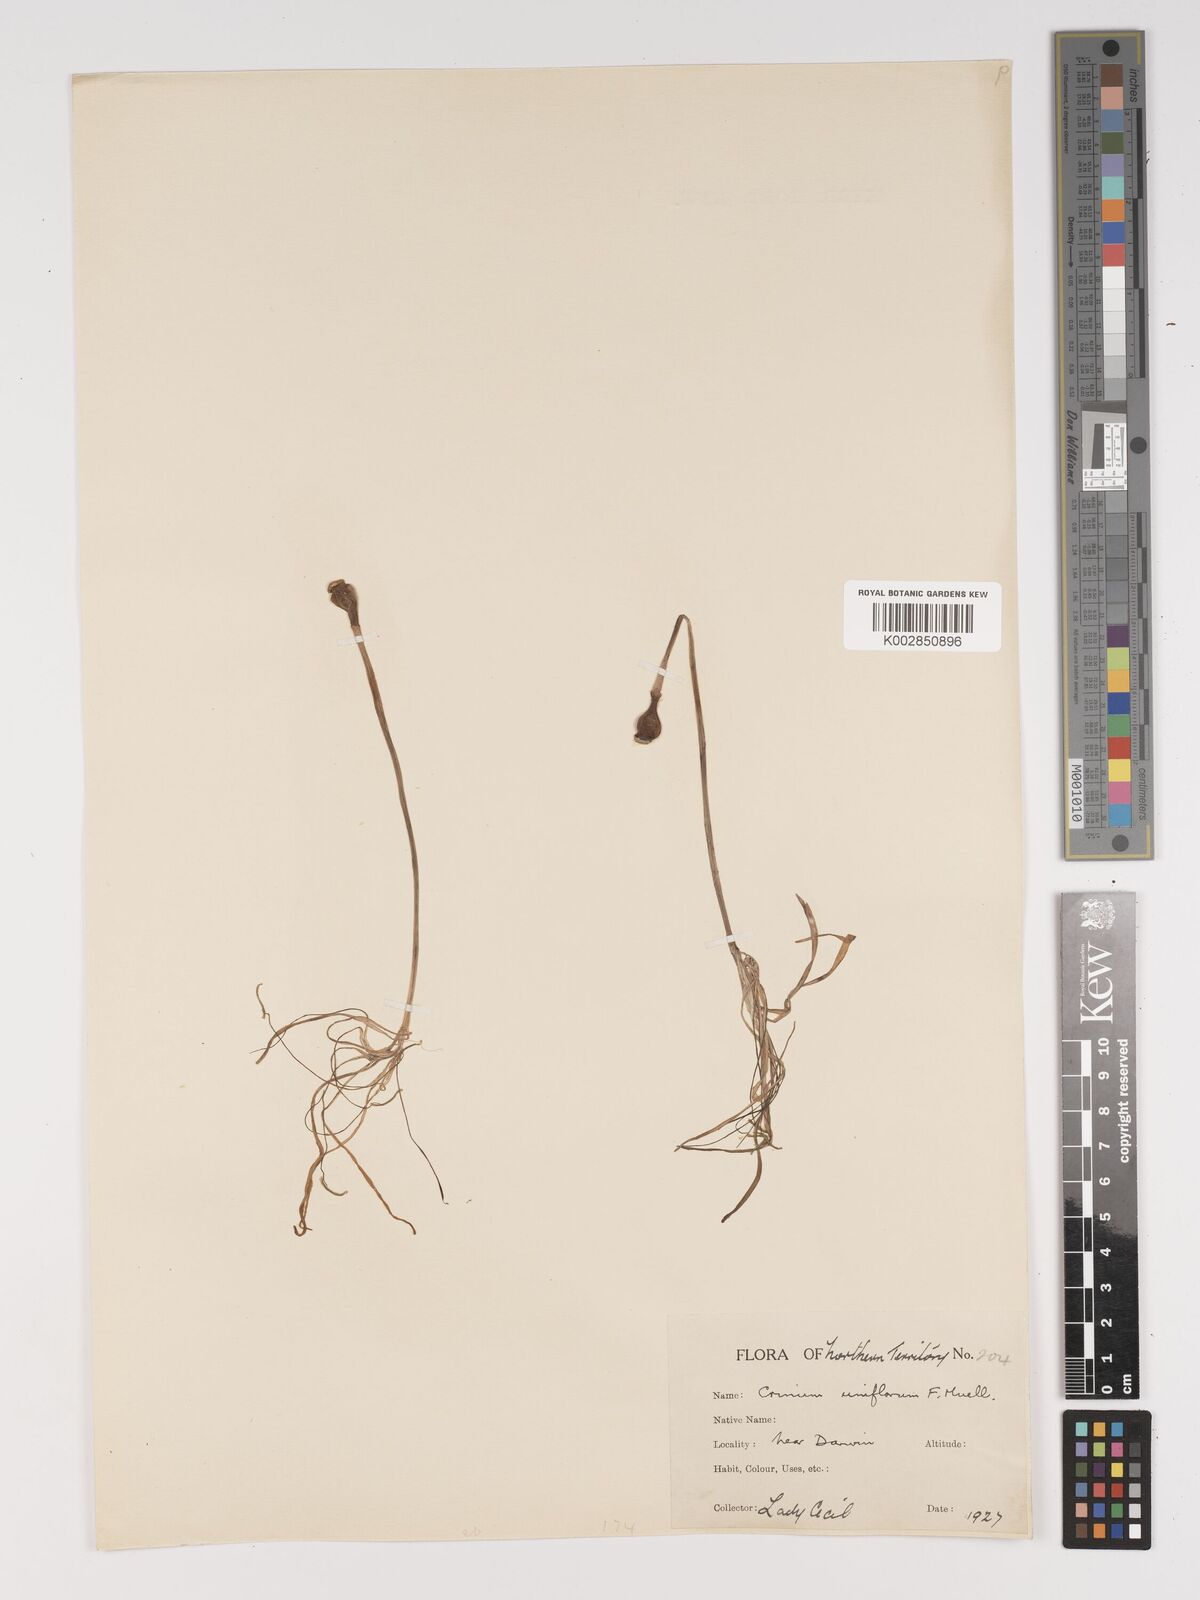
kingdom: Plantae
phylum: Tracheophyta
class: Liliopsida
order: Asparagales
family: Amaryllidaceae
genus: Crinum
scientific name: Crinum uniflorum
